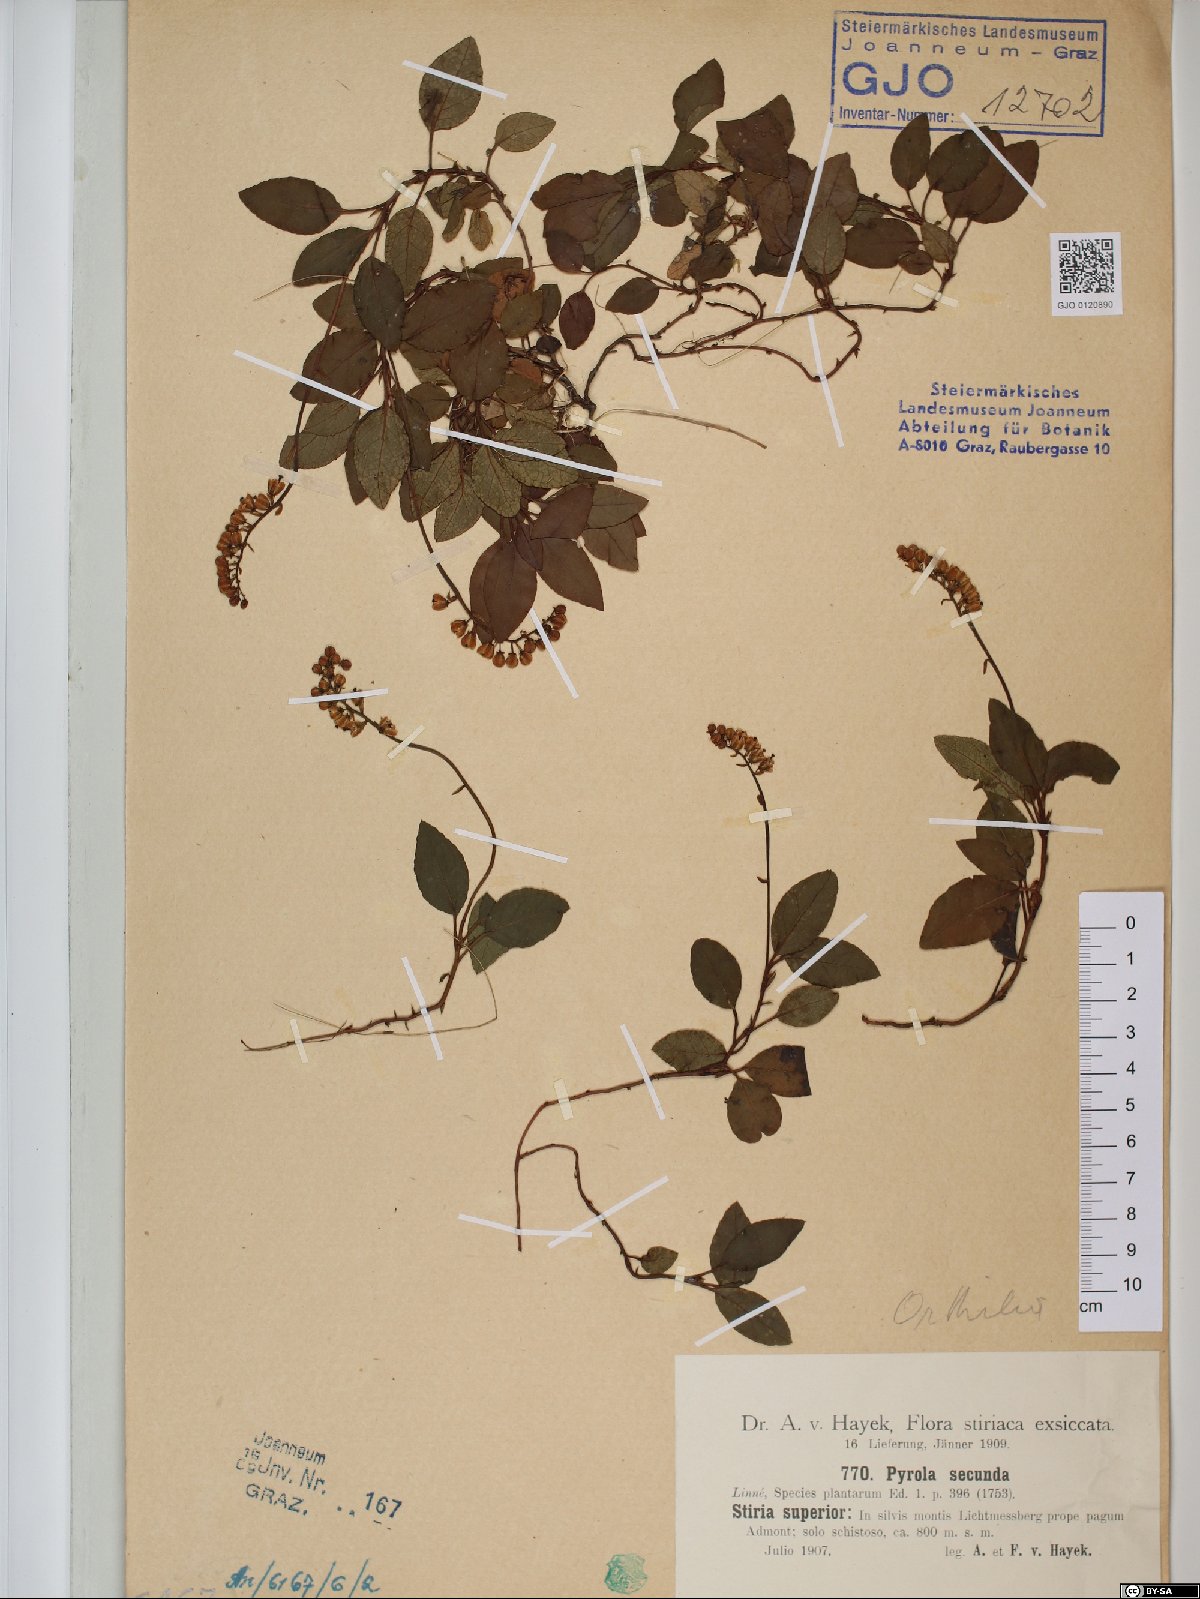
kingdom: Plantae
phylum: Tracheophyta
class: Magnoliopsida
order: Ericales
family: Ericaceae
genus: Orthilia
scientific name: Orthilia secunda
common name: One-sided orthilia
